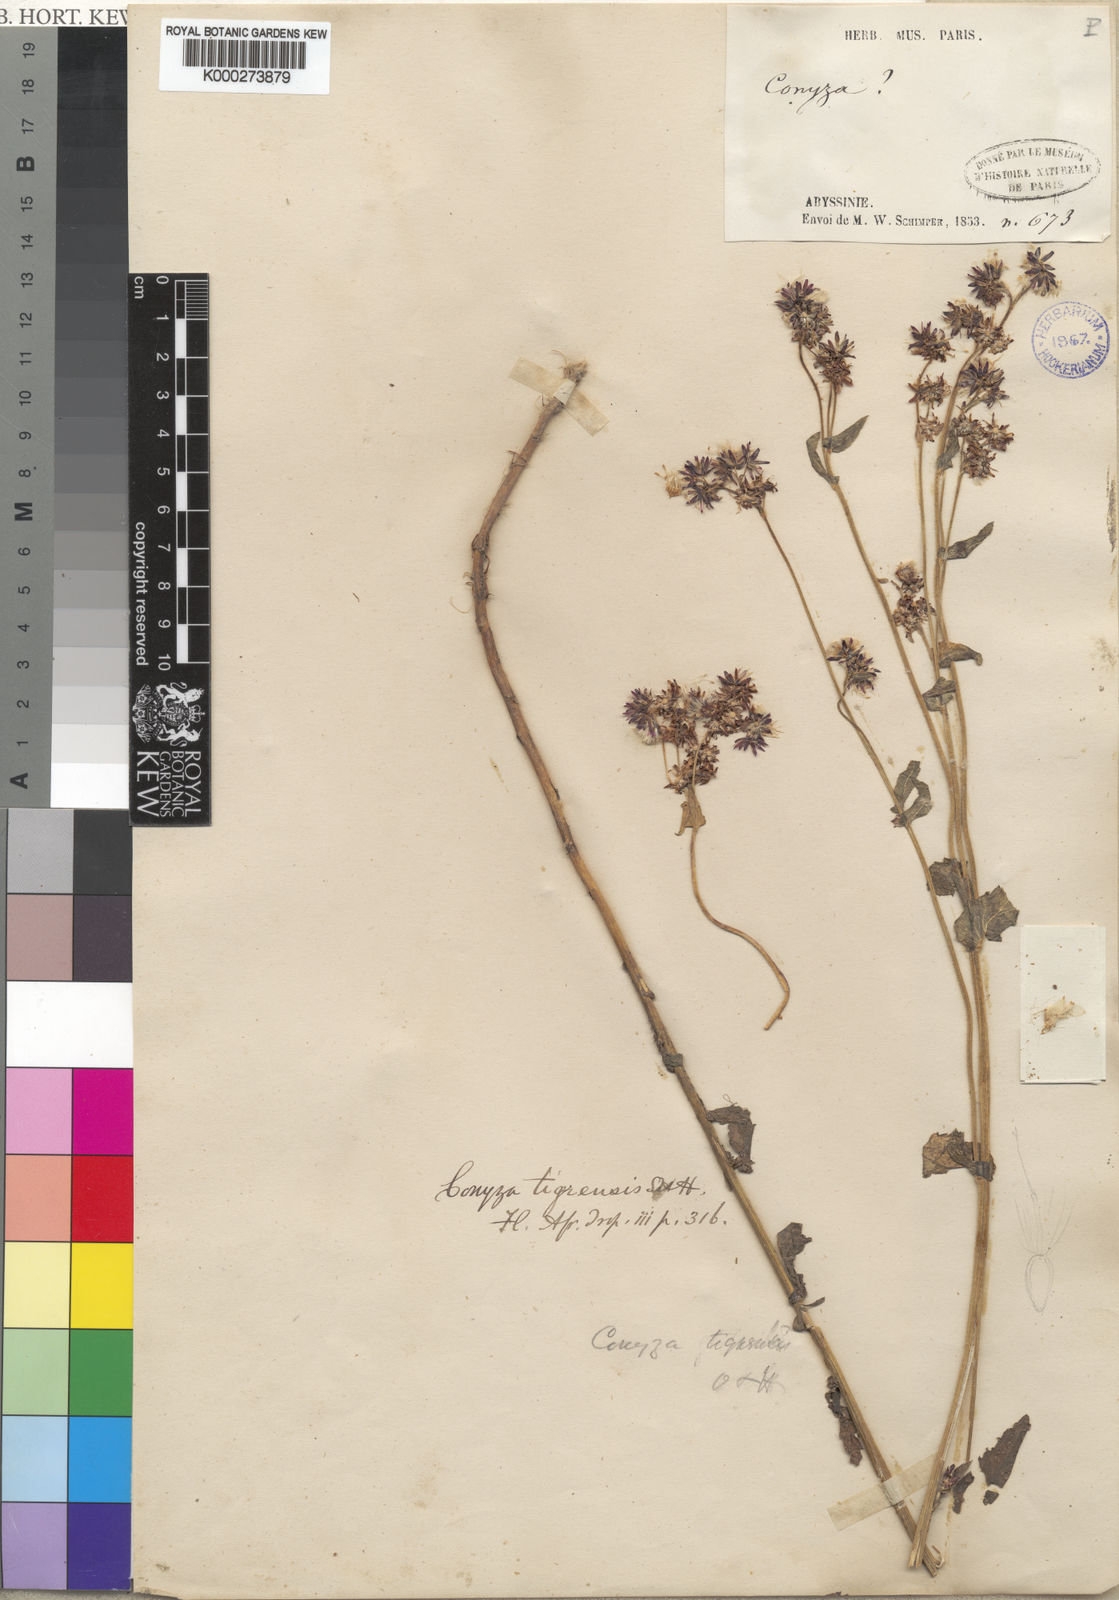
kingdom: Plantae
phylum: Tracheophyta
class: Magnoliopsida
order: Asterales
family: Asteraceae
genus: Eschenbachia
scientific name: Eschenbachia tigrensis
